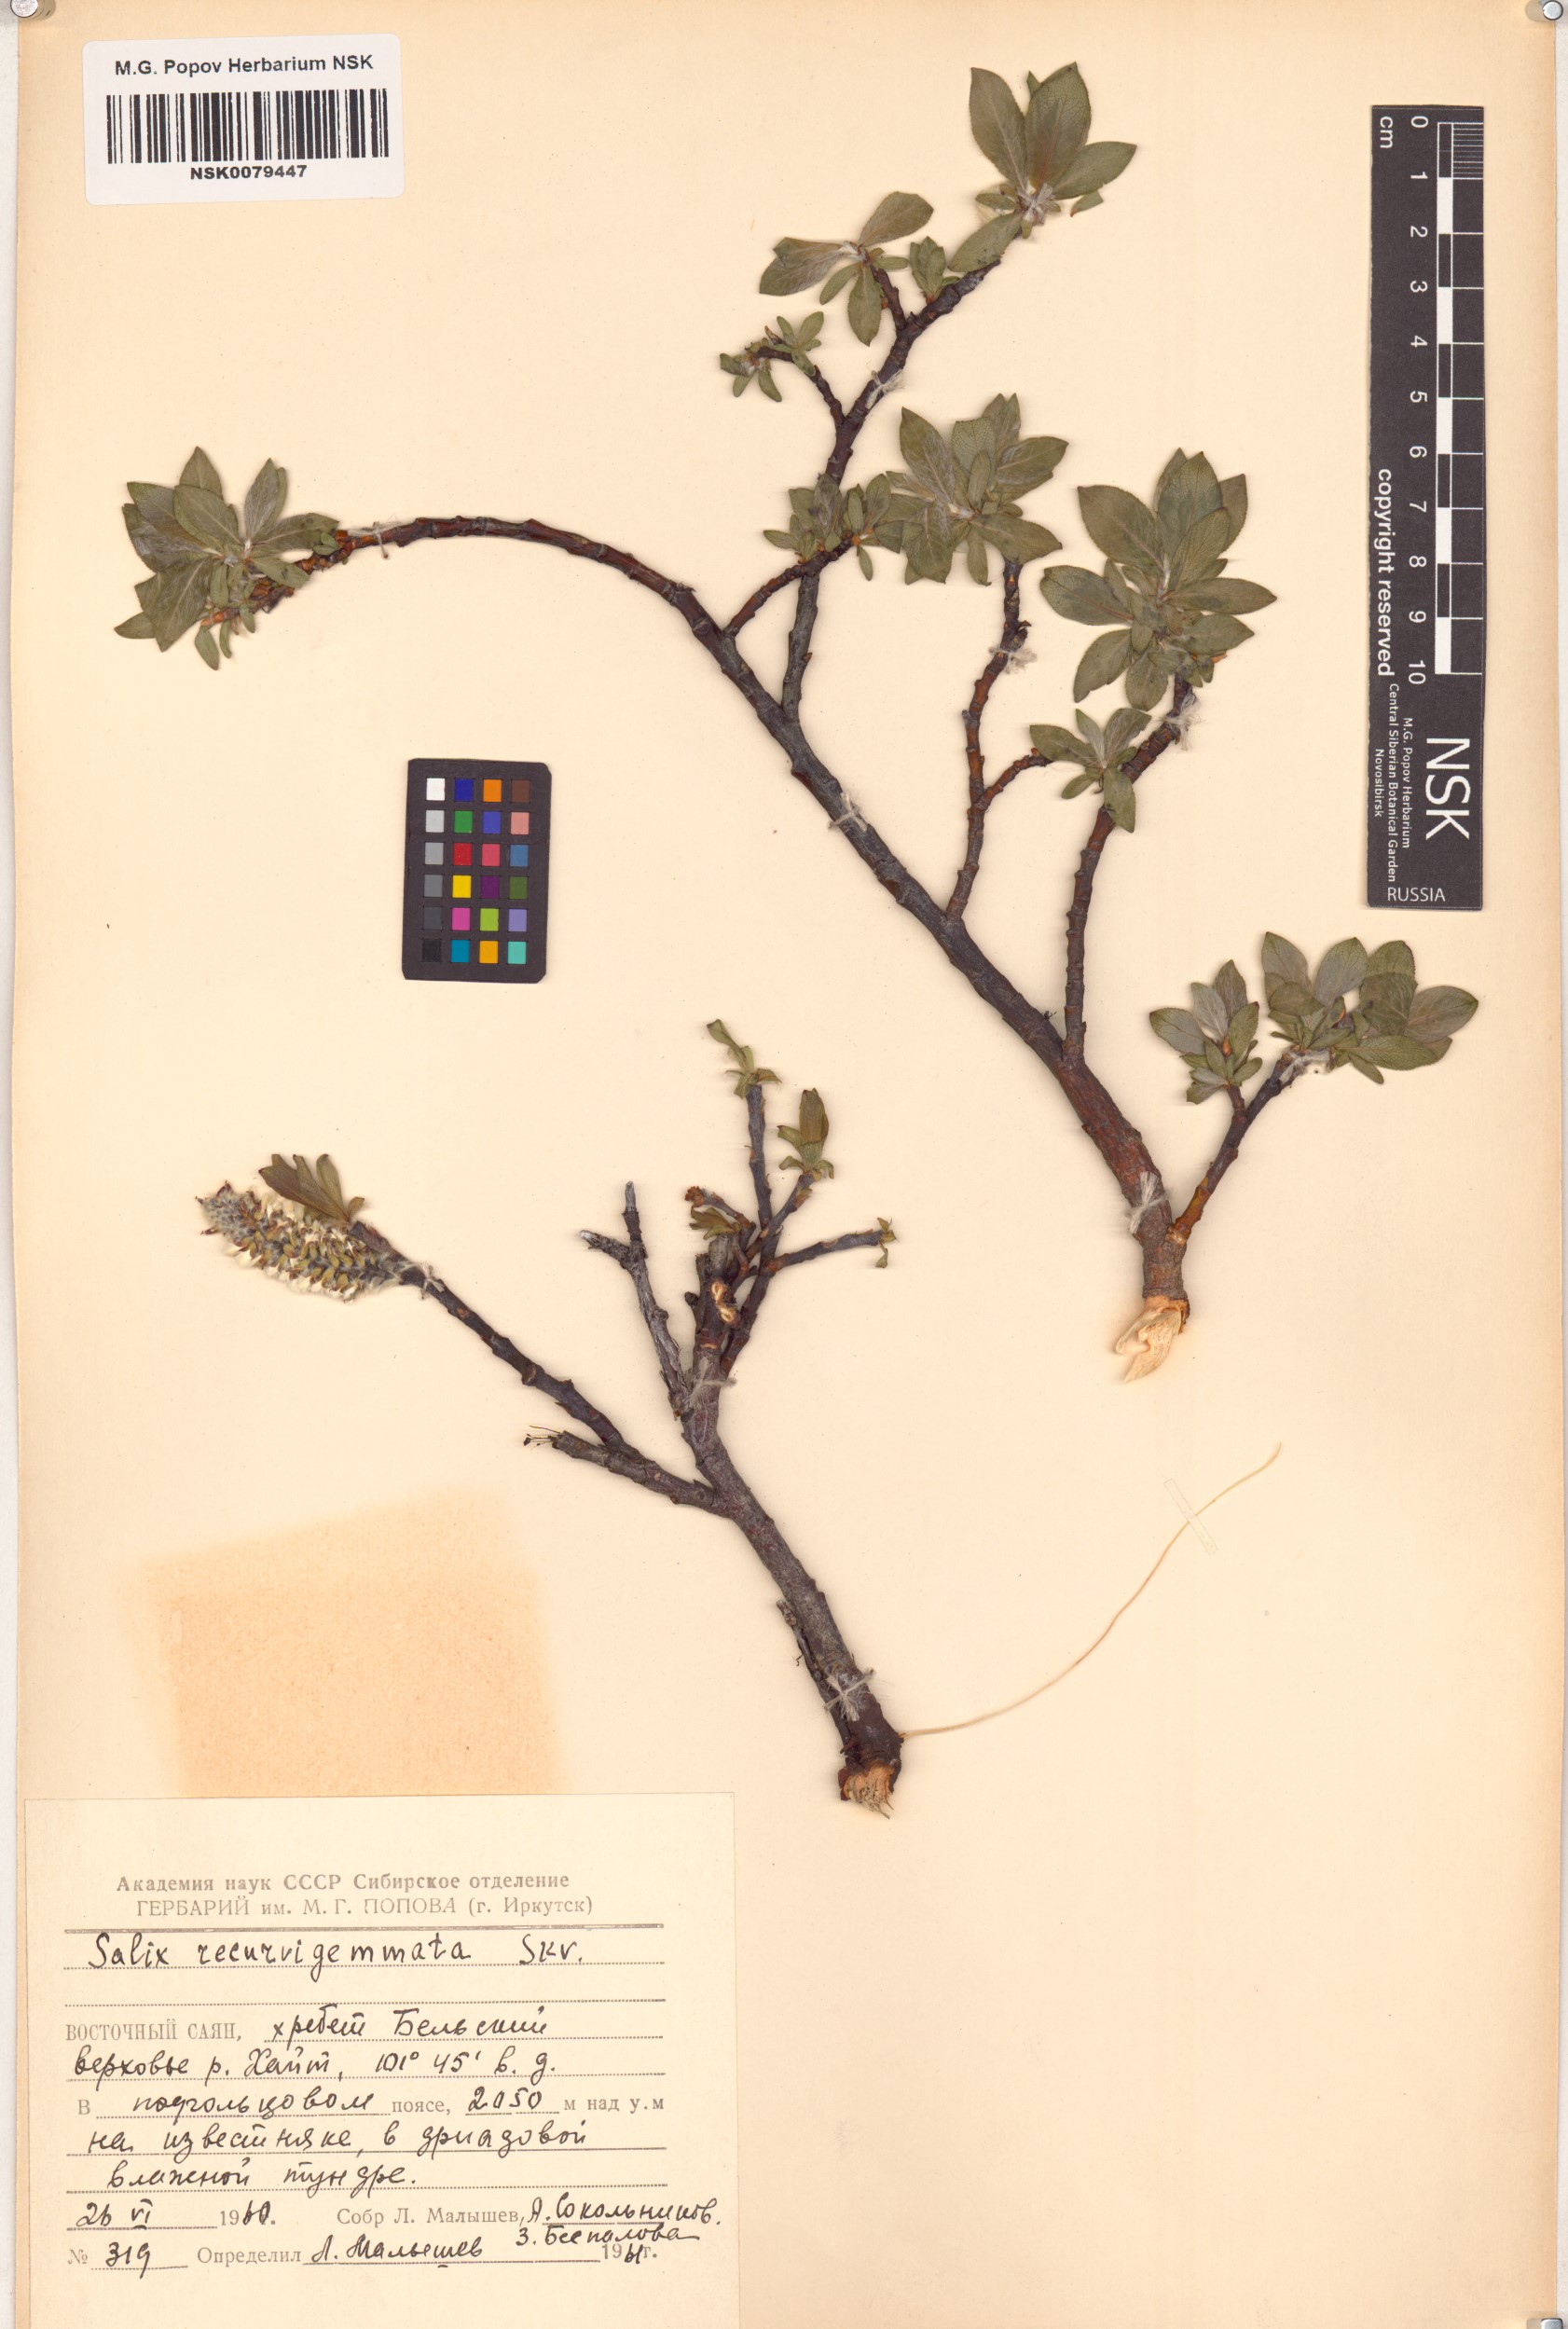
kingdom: Plantae
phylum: Tracheophyta
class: Magnoliopsida
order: Malpighiales
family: Salicaceae
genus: Salix
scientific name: Salix recurvigemmata
